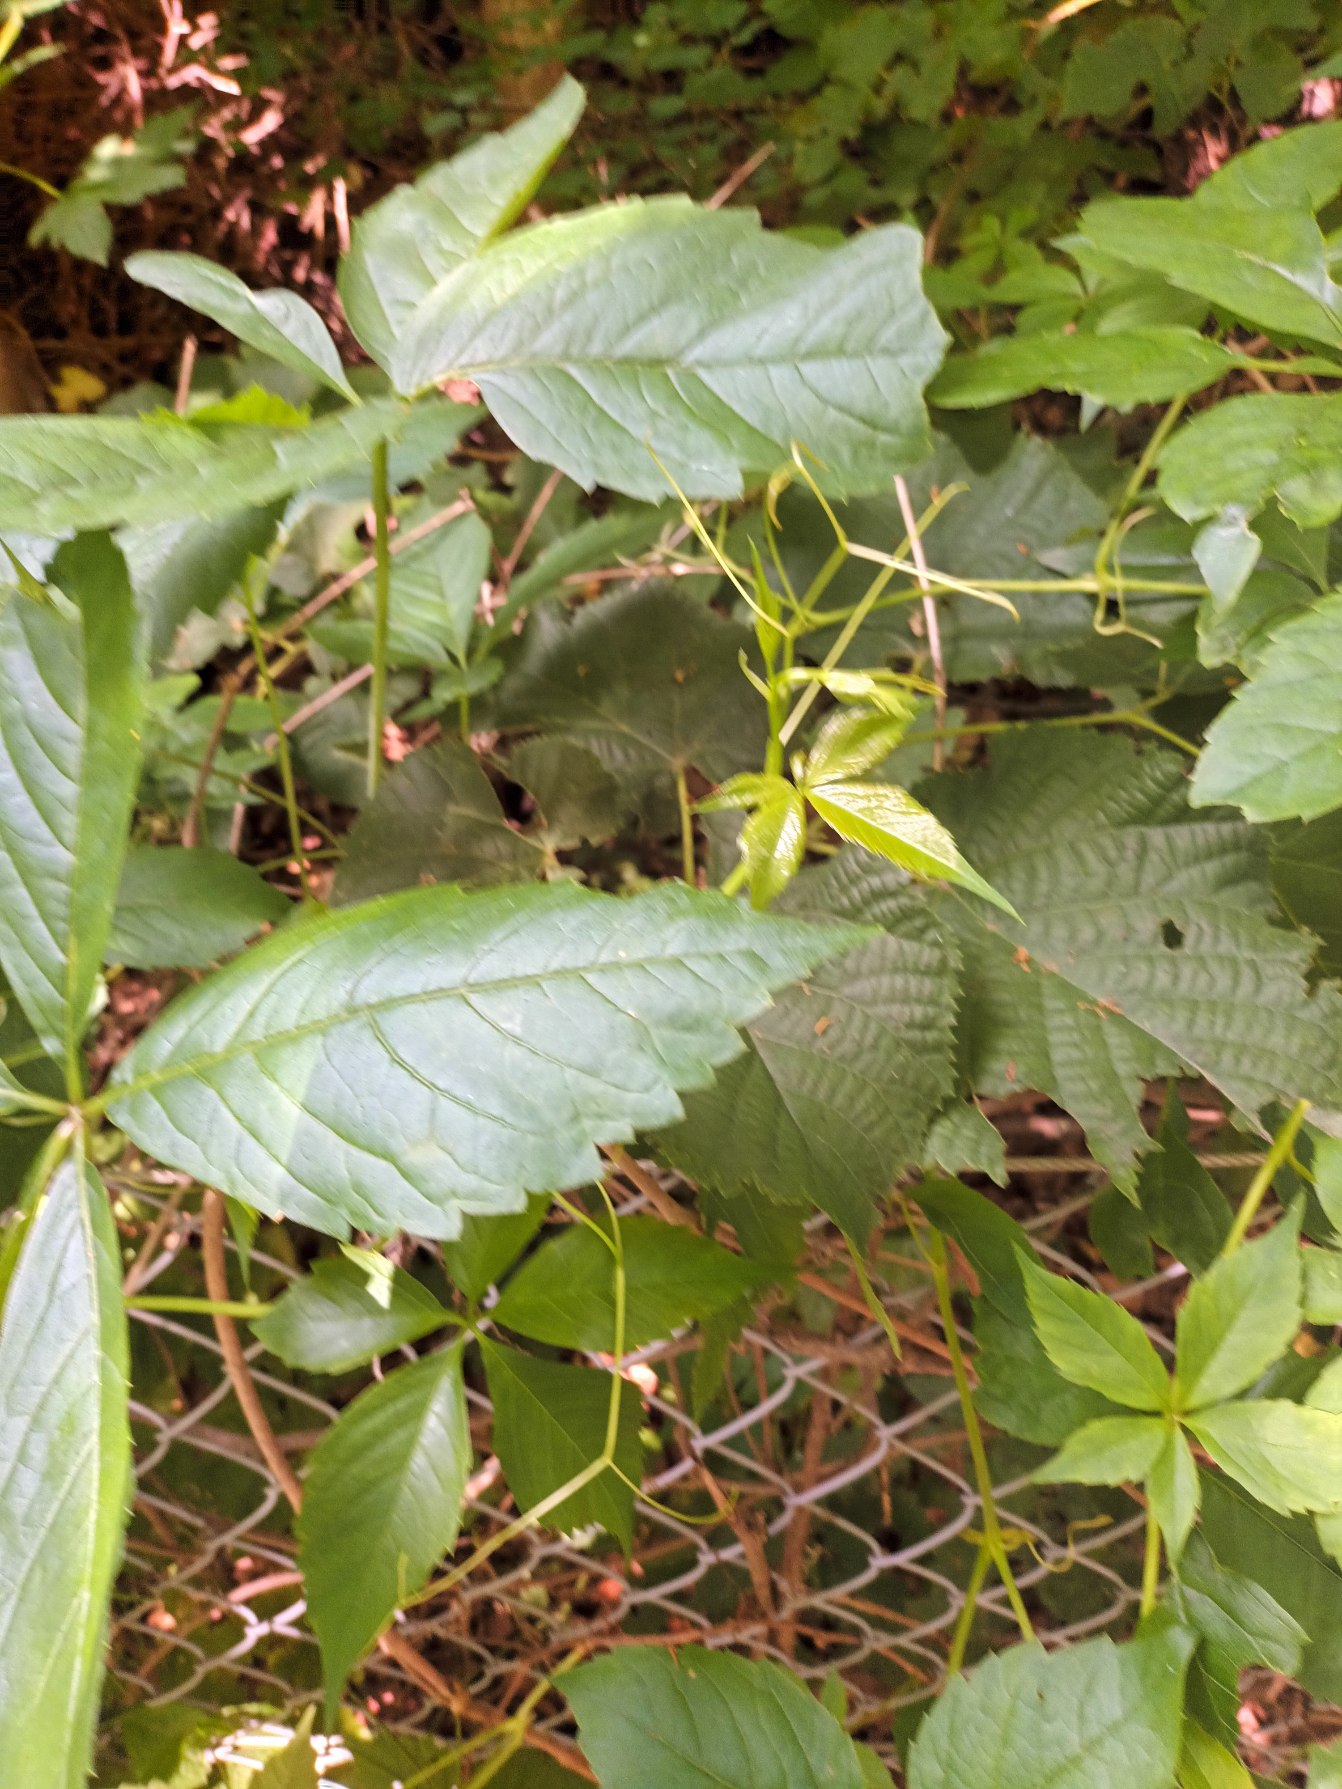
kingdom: Plantae
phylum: Tracheophyta
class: Magnoliopsida
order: Vitales
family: Vitaceae
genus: Parthenocissus
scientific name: Parthenocissus inserta
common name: Vildvin
